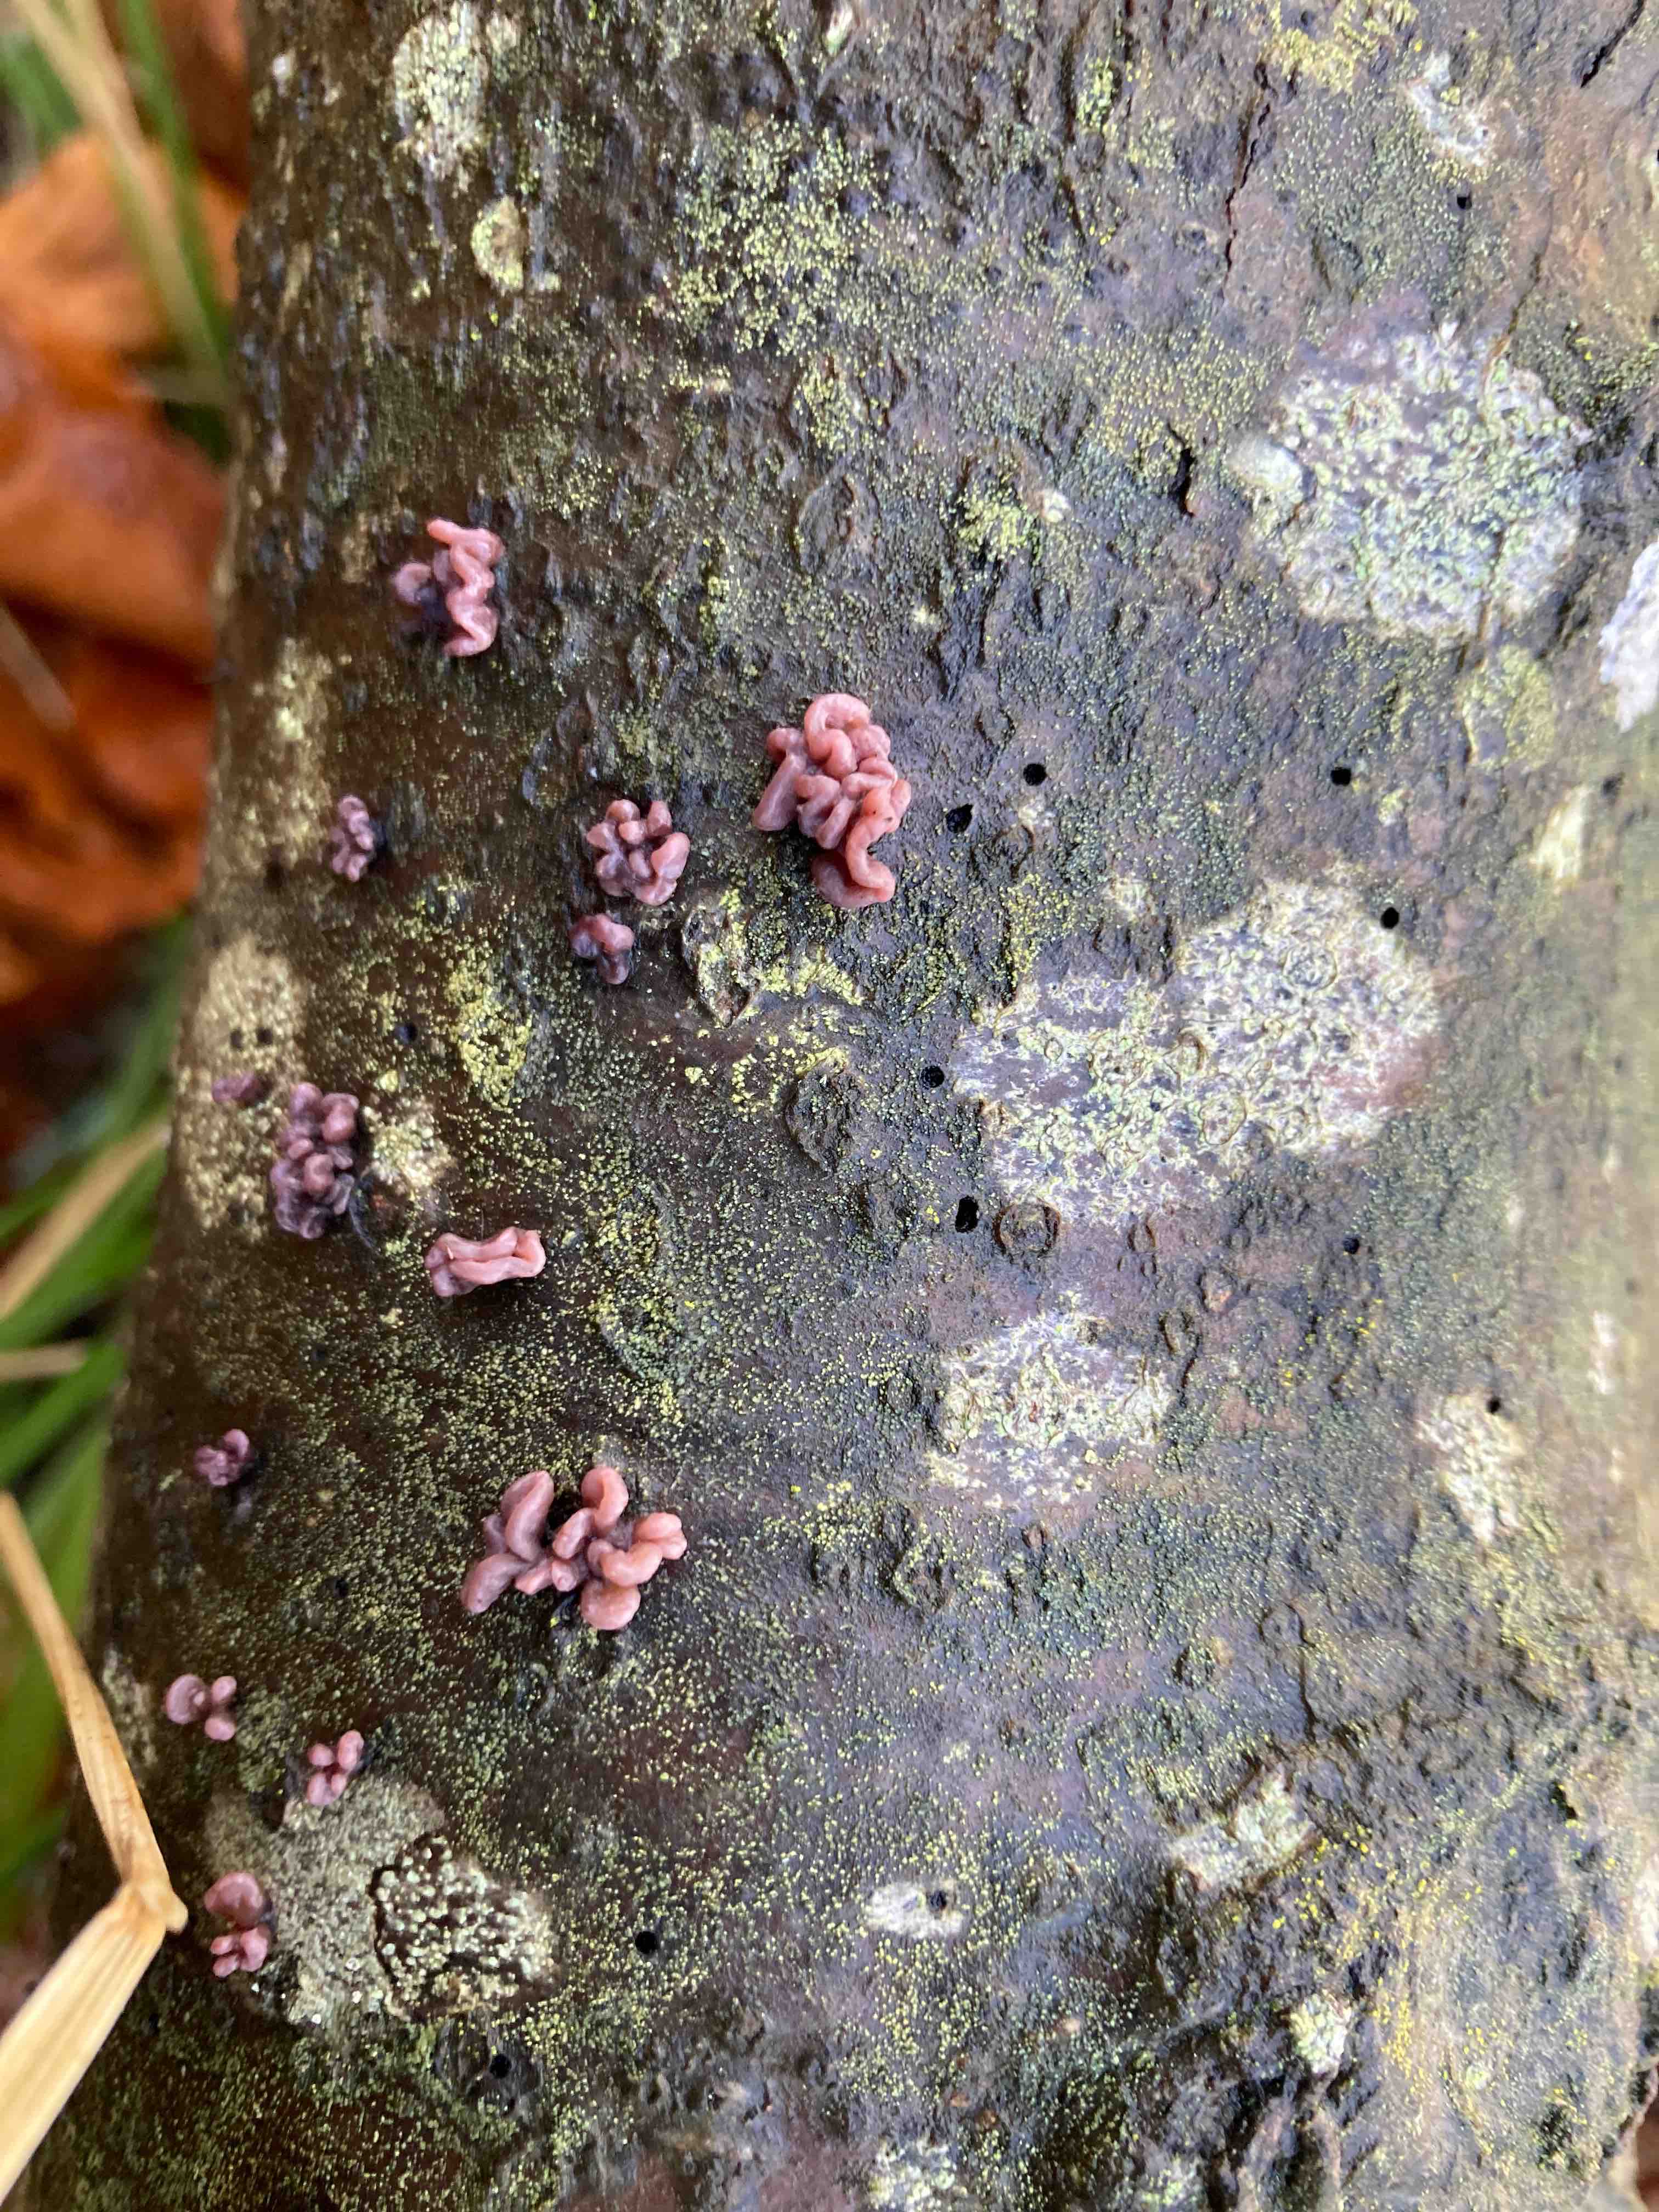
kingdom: Fungi
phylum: Ascomycota
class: Leotiomycetes
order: Helotiales
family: Gelatinodiscaceae
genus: Ascocoryne
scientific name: Ascocoryne sarcoides
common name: rødlilla sejskive
